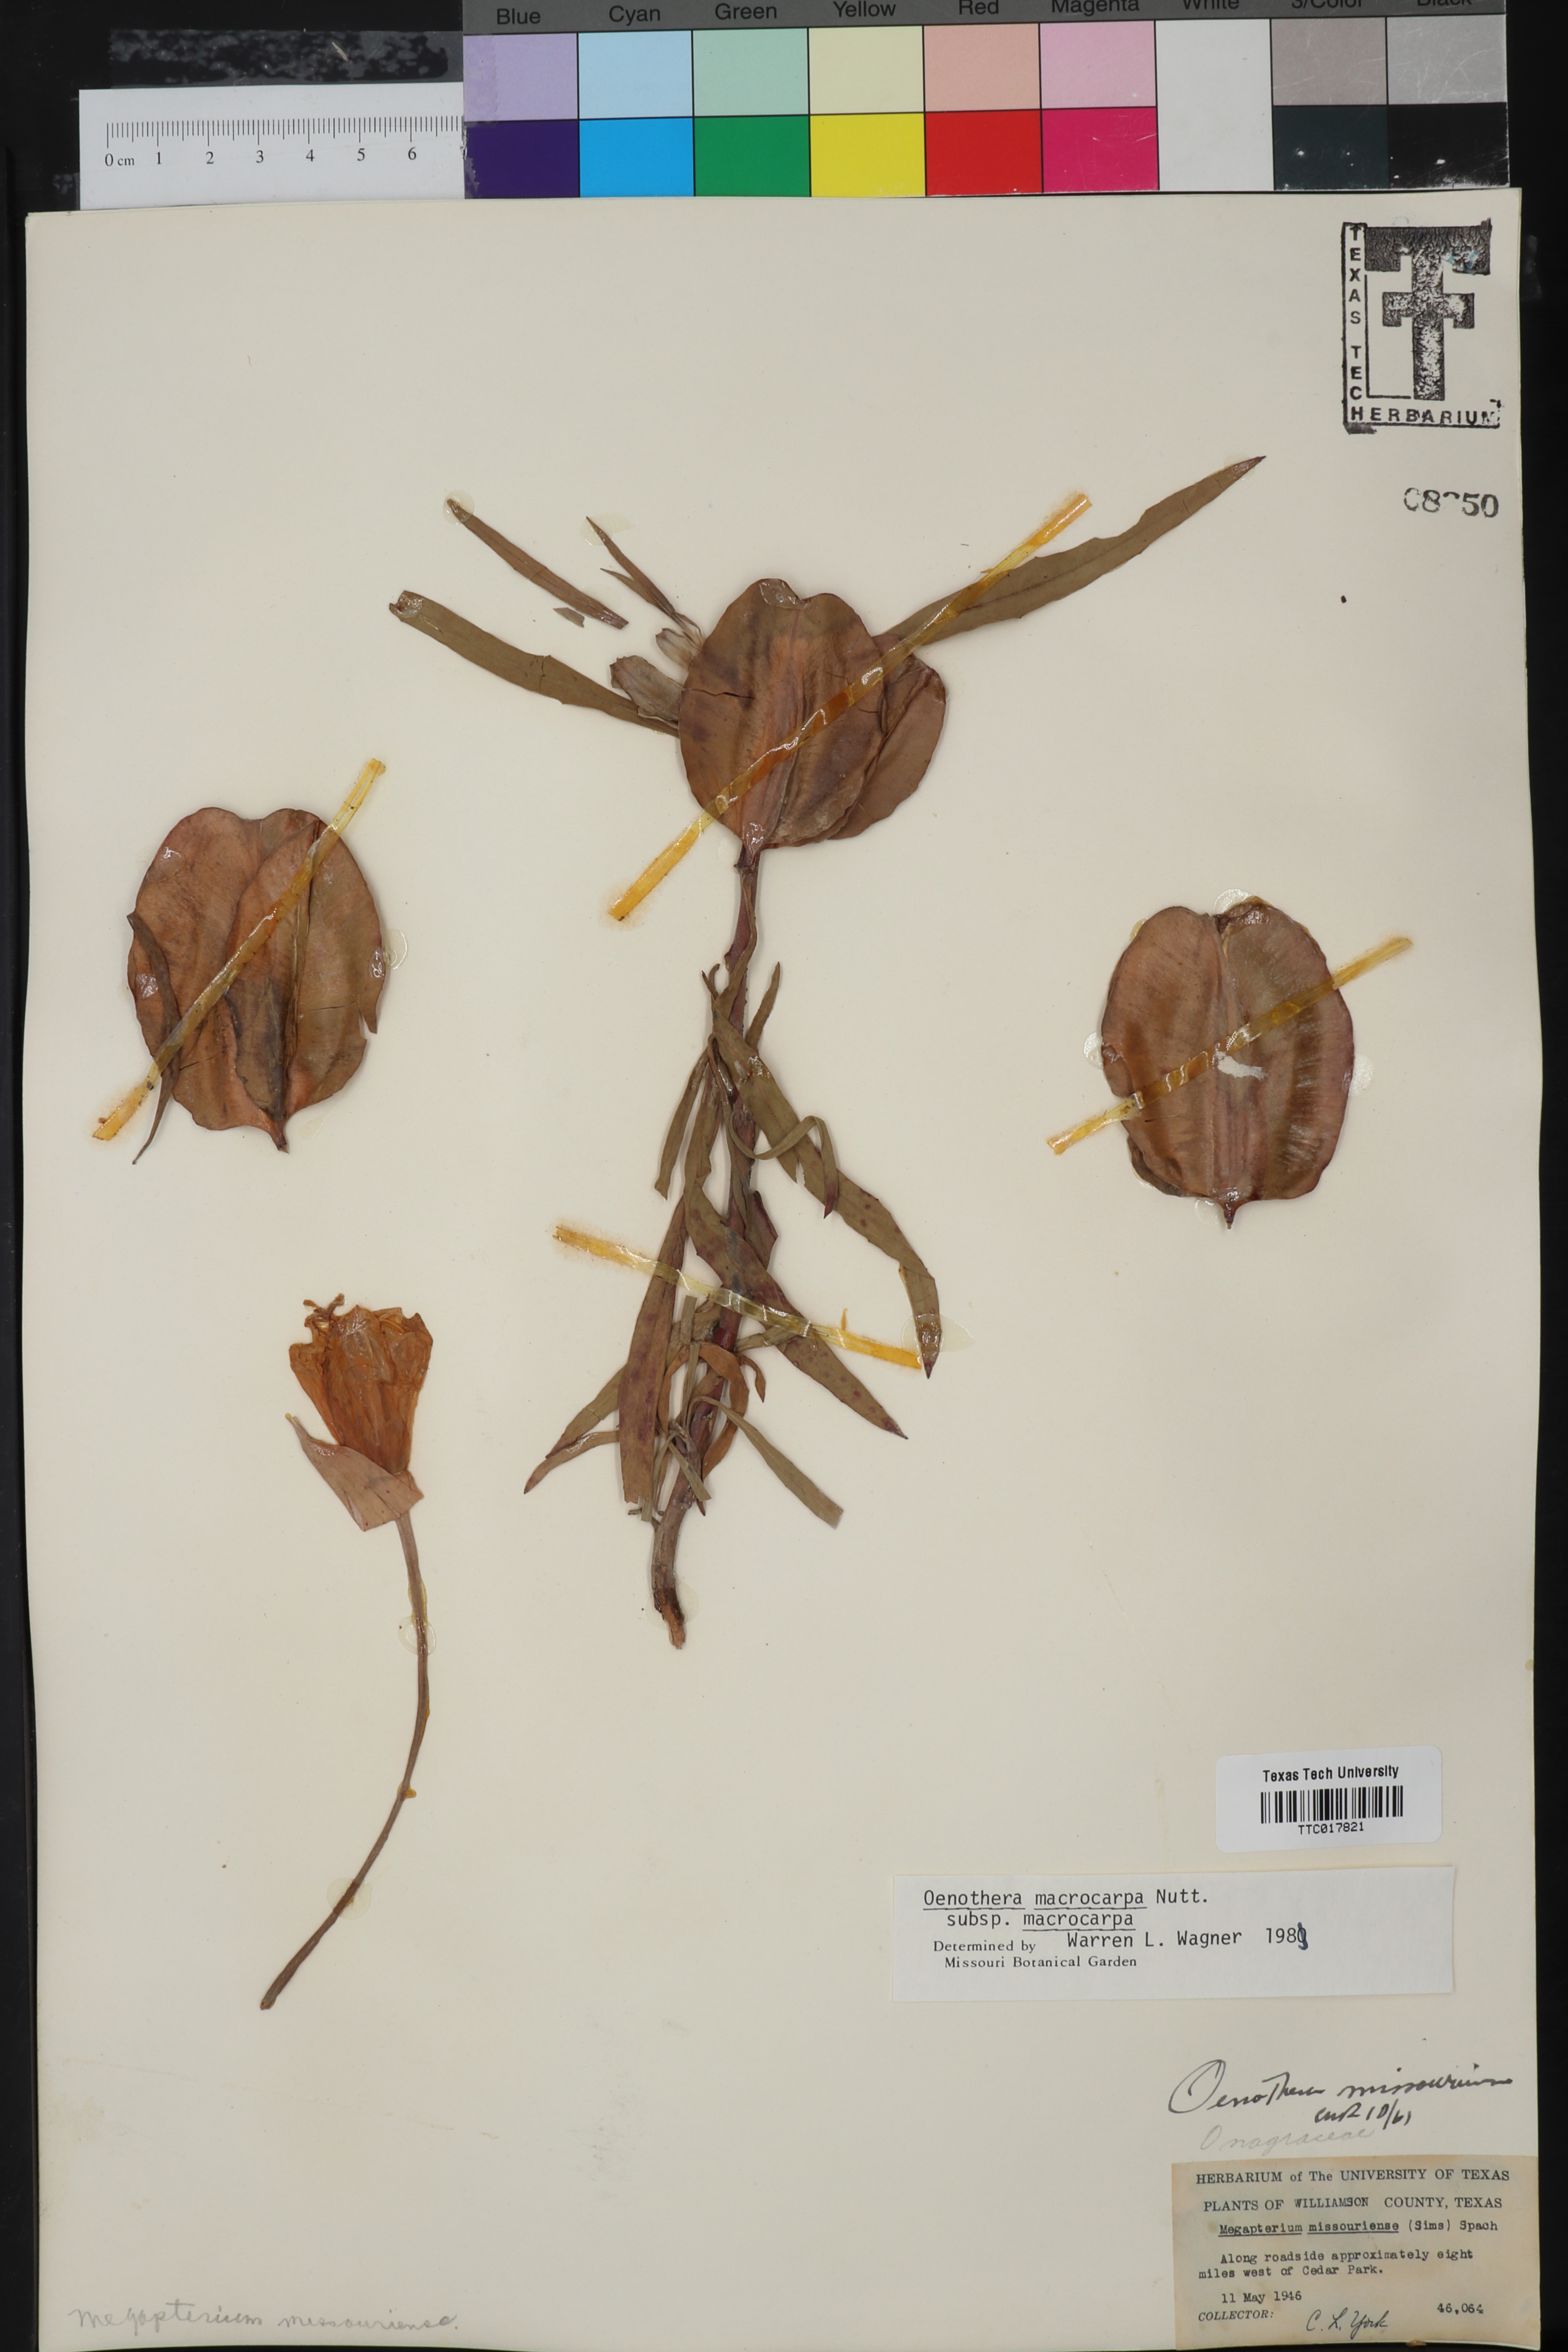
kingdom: Plantae
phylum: Tracheophyta
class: Magnoliopsida
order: Myrtales
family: Onagraceae
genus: Oenothera
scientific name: Oenothera macrocarpa
